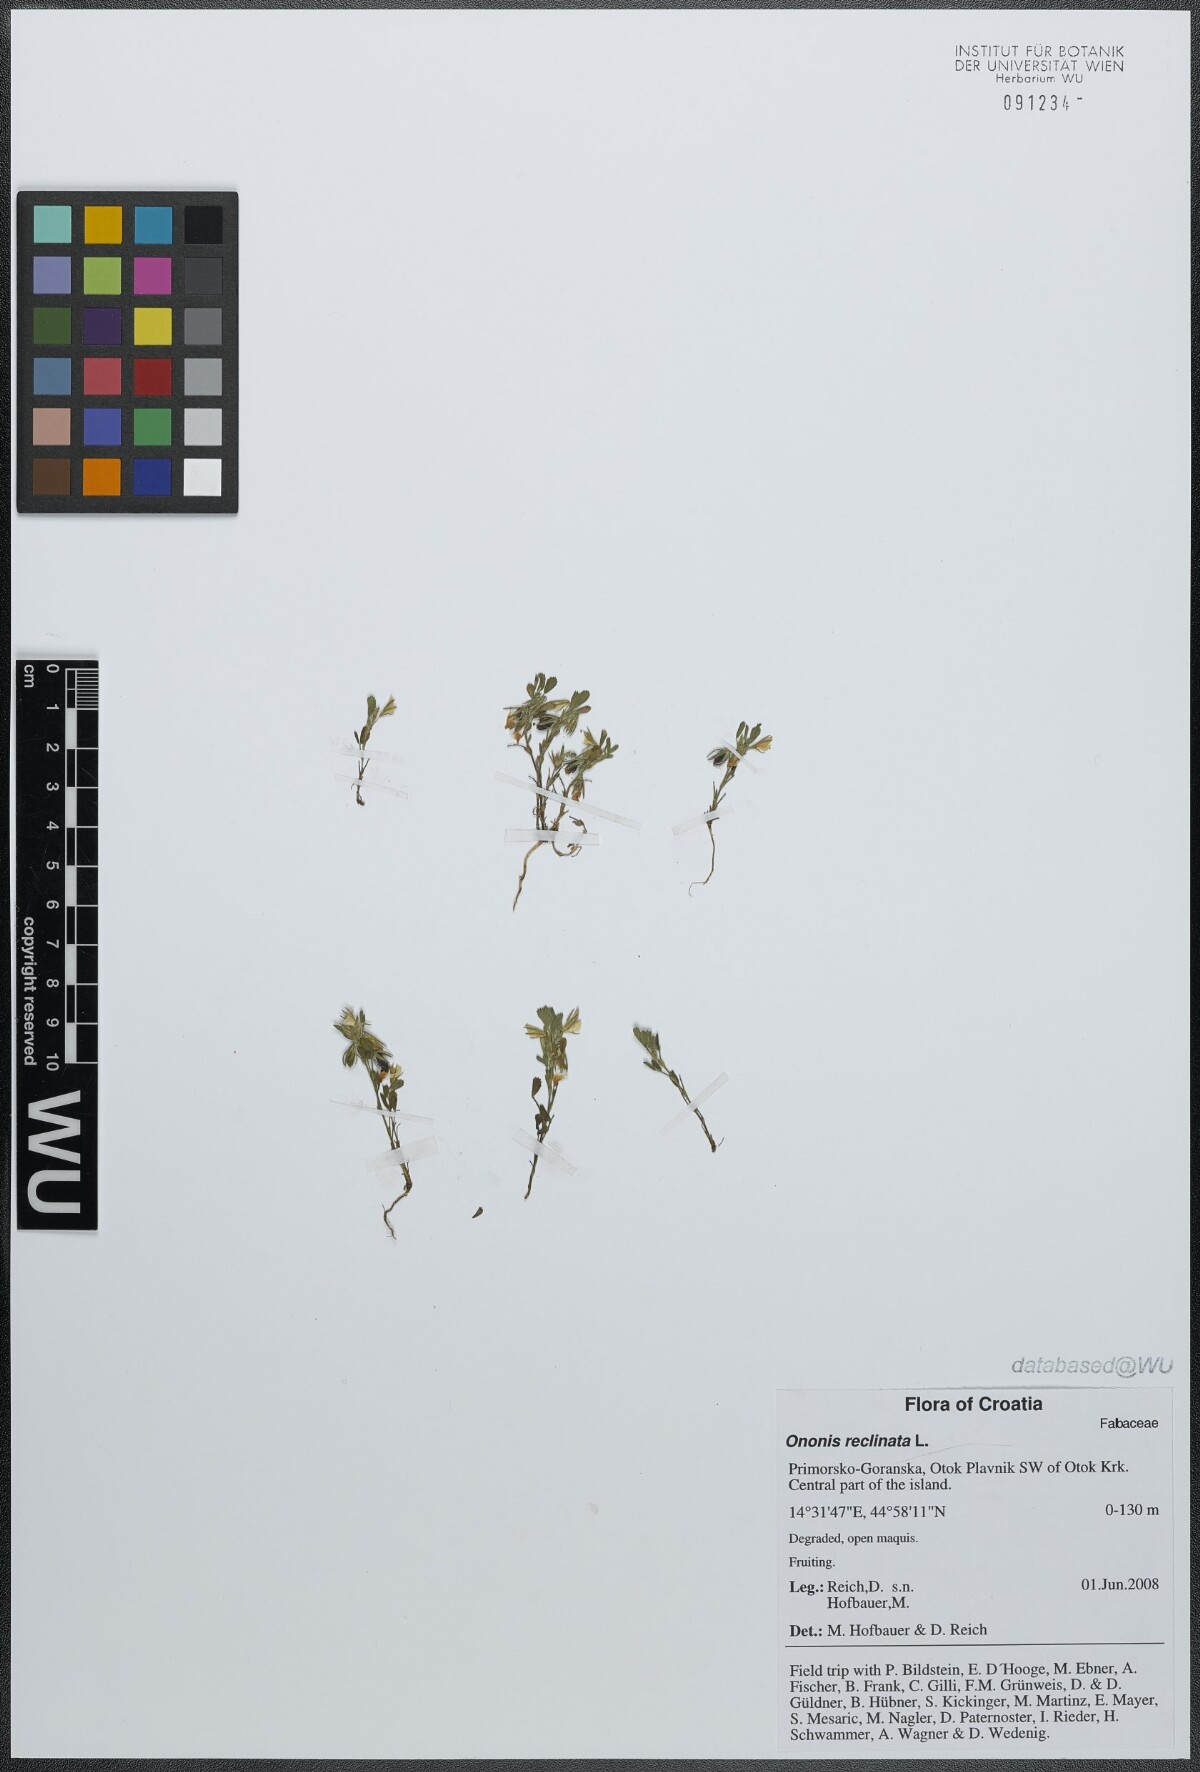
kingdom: Plantae
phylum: Tracheophyta
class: Magnoliopsida
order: Fabales
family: Fabaceae
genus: Ononis
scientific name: Ononis reclinata
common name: Small restharrow
